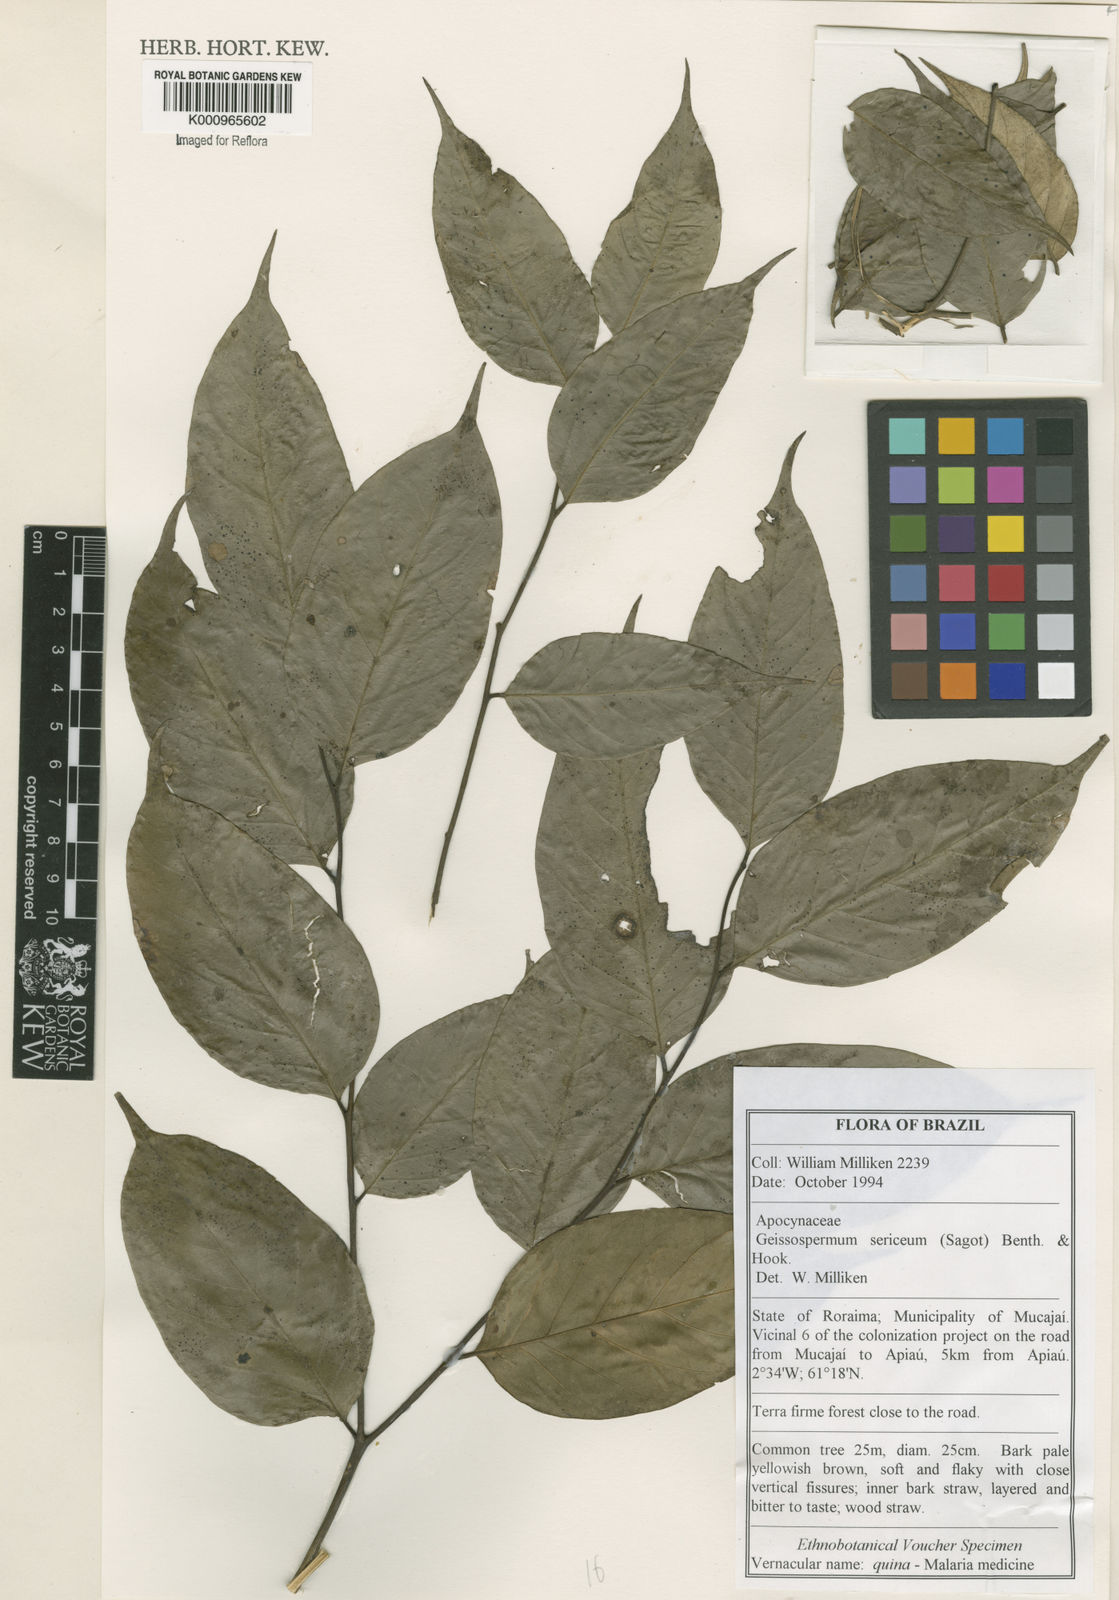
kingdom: Plantae
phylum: Tracheophyta
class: Magnoliopsida
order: Gentianales
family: Apocynaceae
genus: Geissospermum
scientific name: Geissospermum
